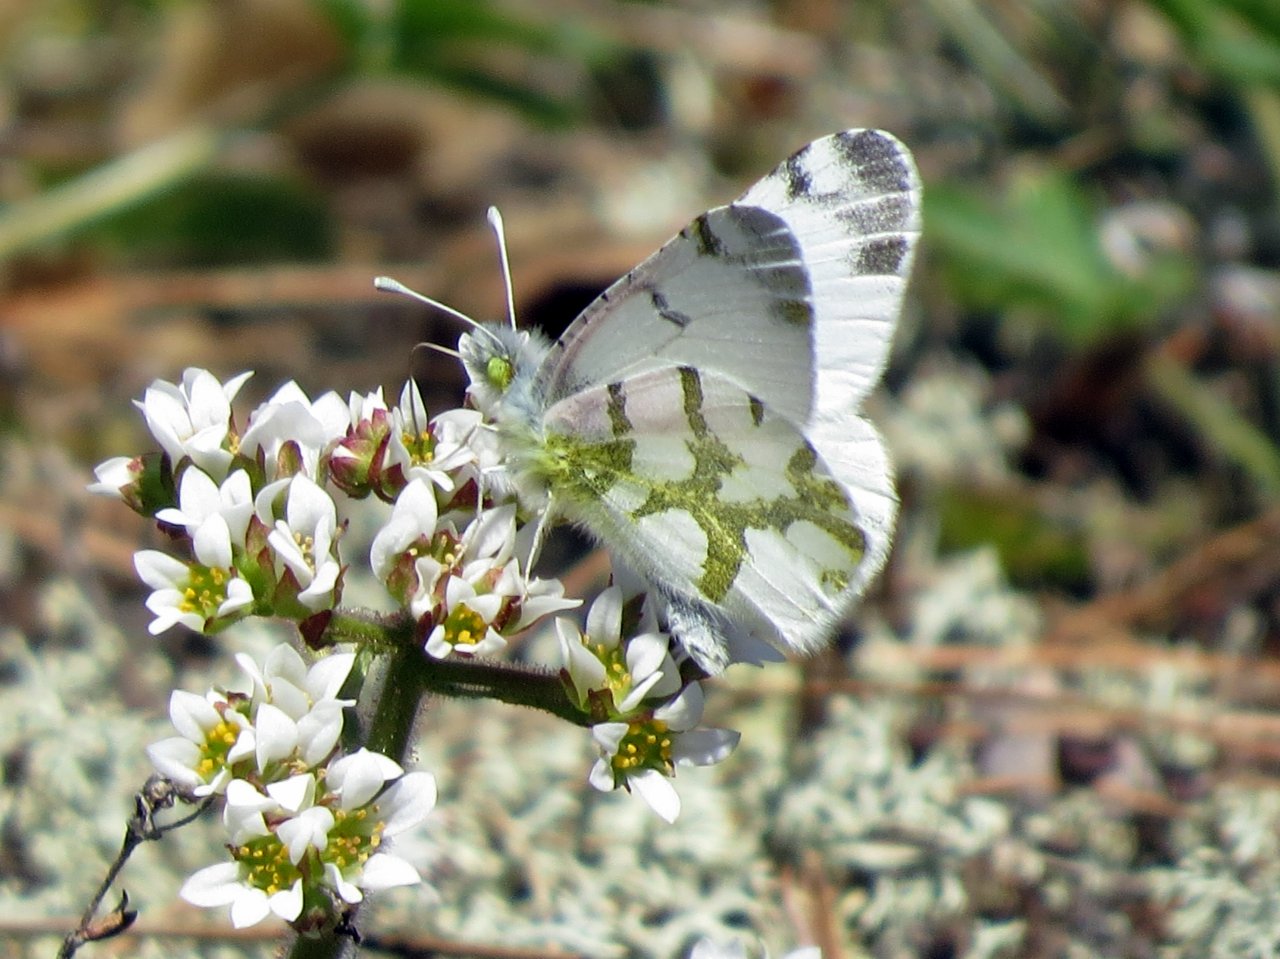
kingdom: Animalia
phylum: Arthropoda
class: Insecta
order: Lepidoptera
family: Pieridae
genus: Euchloe
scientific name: Euchloe olympia
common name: Olympia Marble
